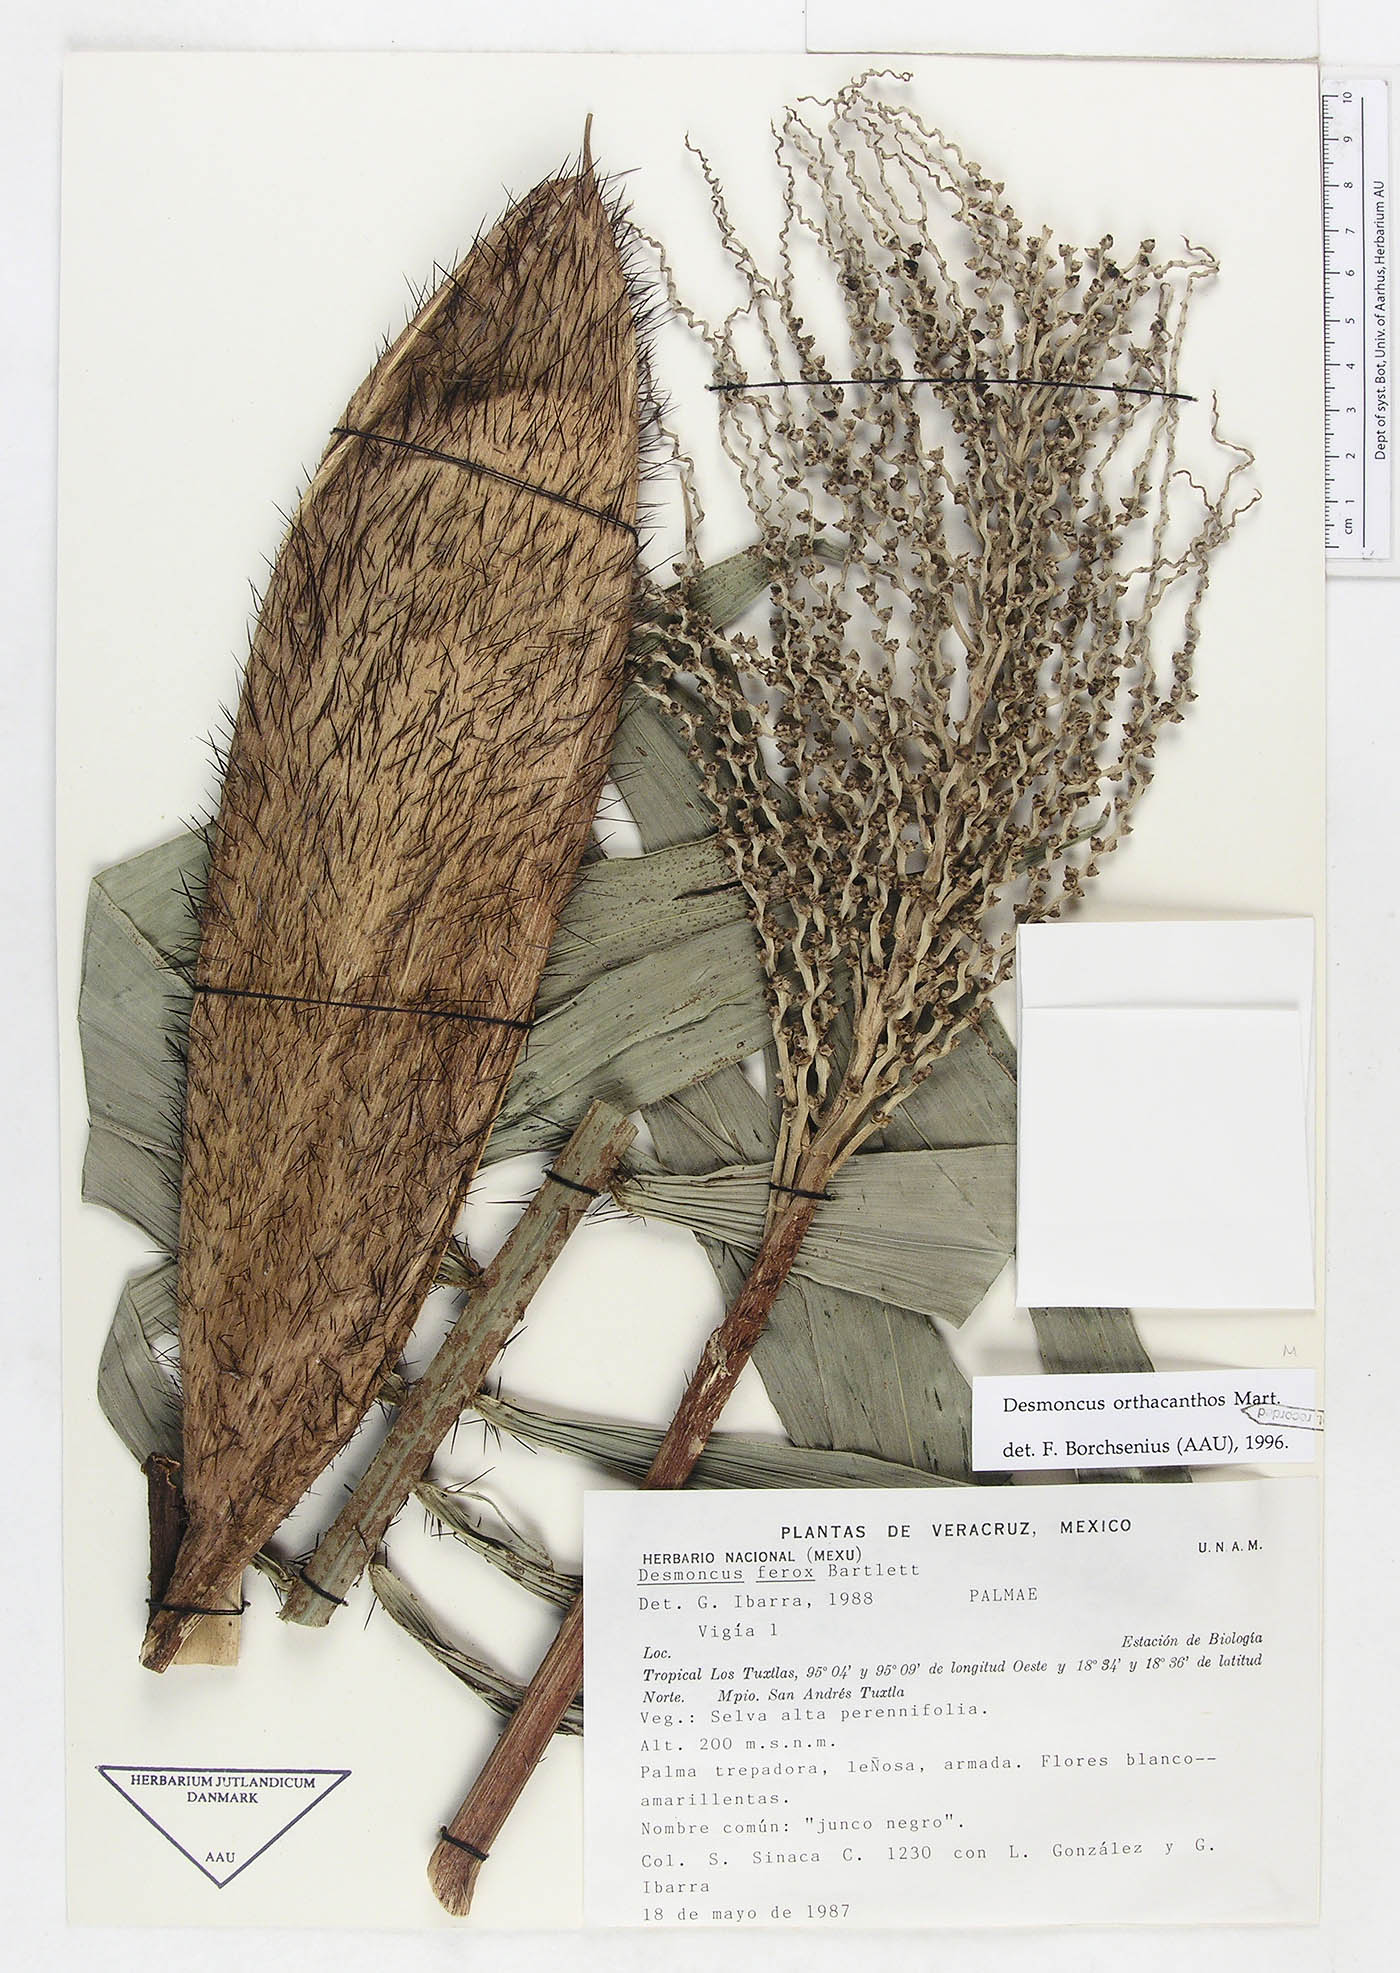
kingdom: Plantae
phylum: Tracheophyta
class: Liliopsida
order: Arecales
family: Arecaceae
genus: Desmoncus
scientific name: Desmoncus chinantlensis
